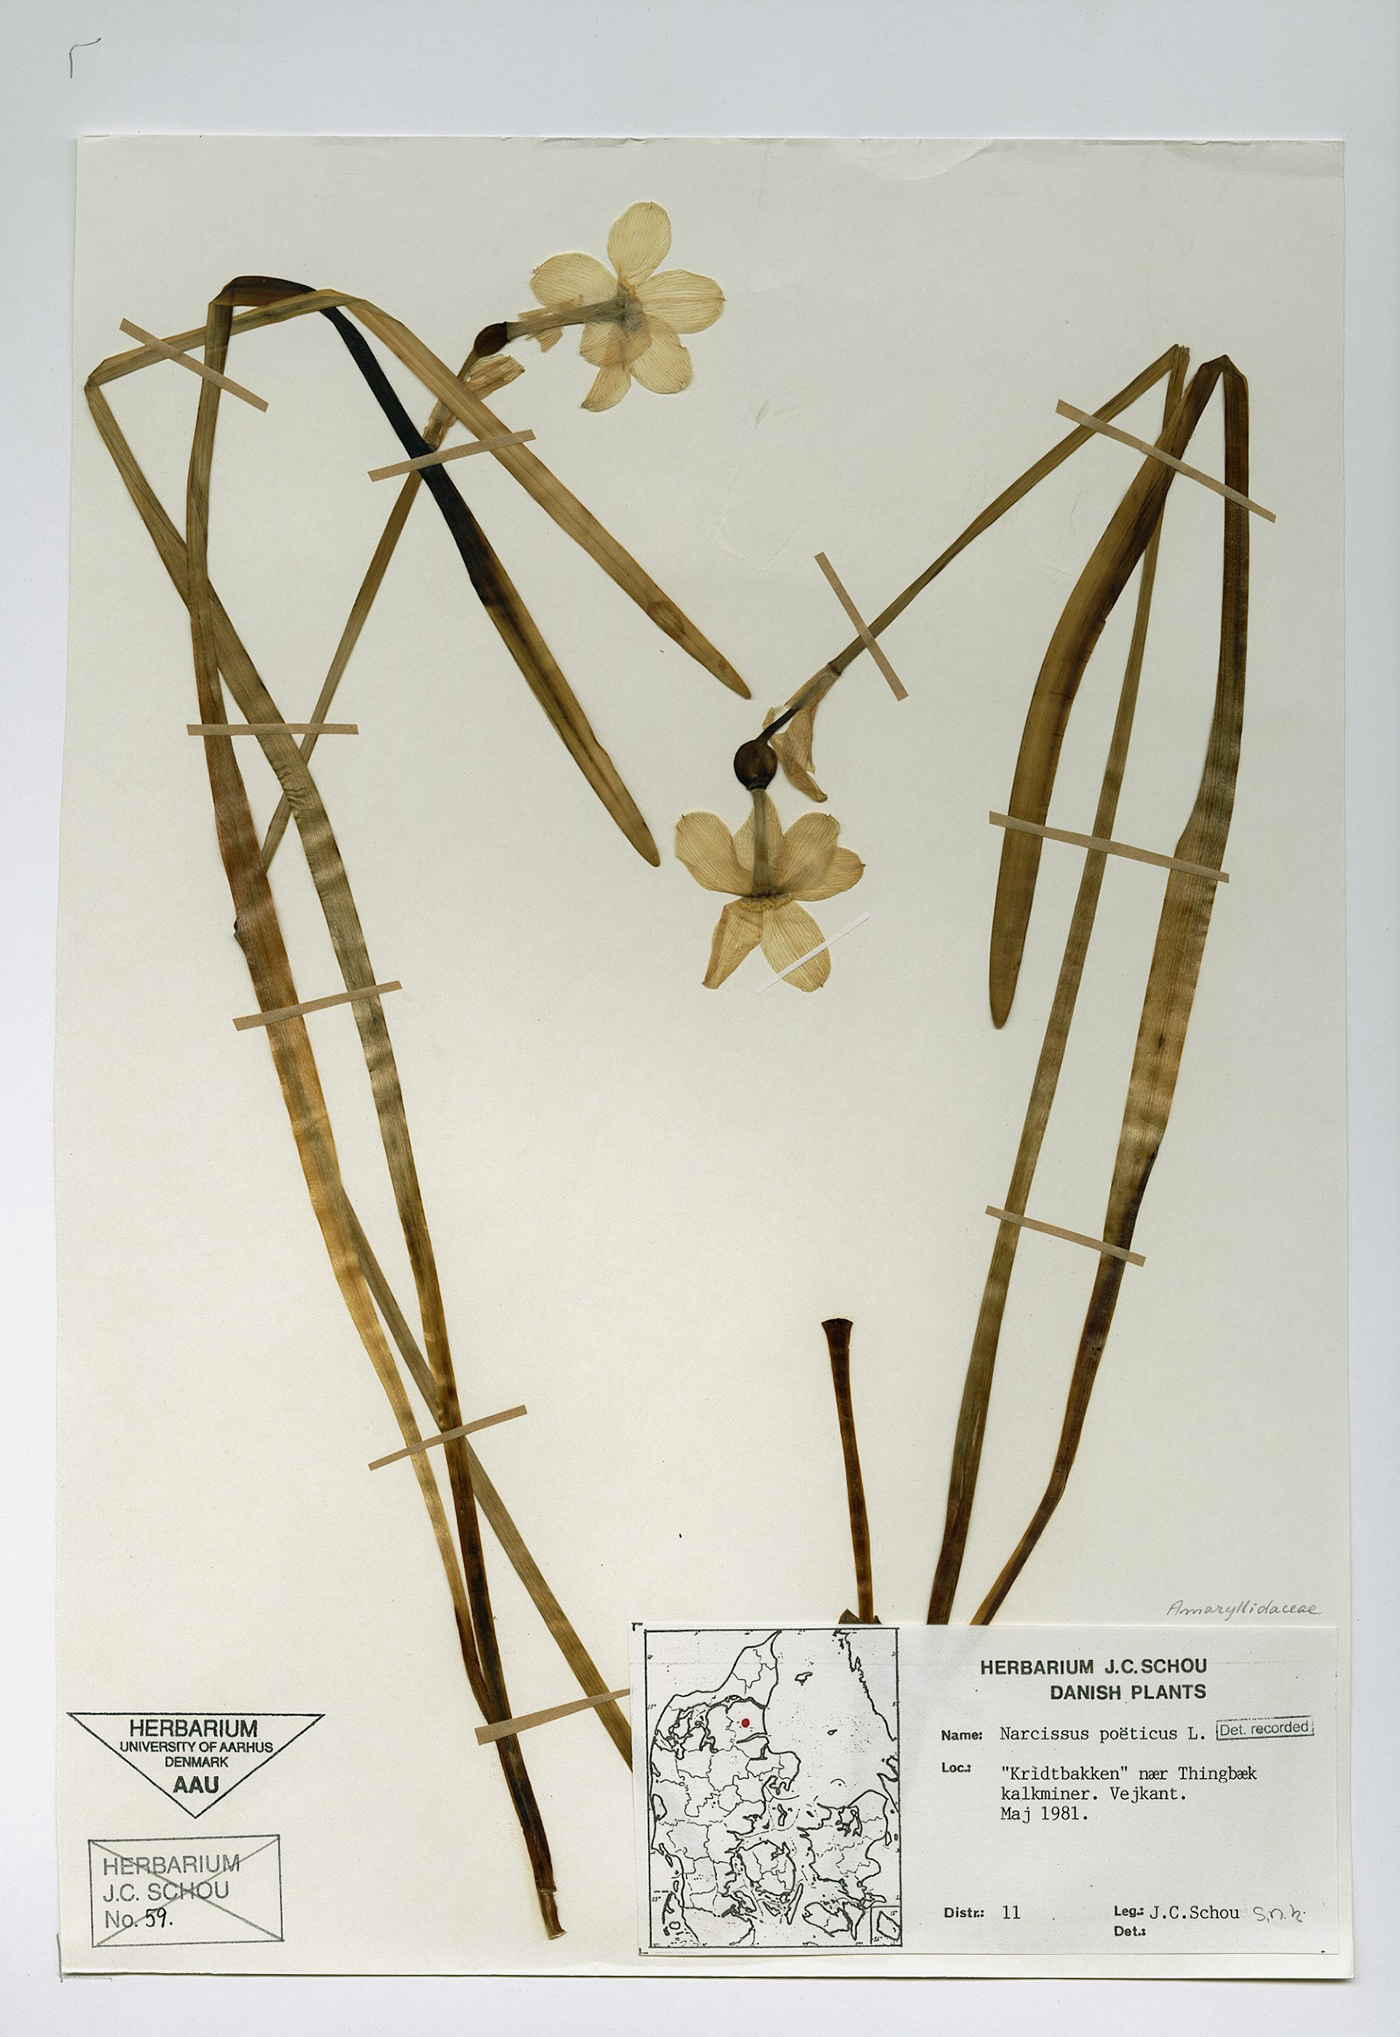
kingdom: Plantae
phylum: Tracheophyta
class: Liliopsida
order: Asparagales
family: Amaryllidaceae
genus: Narcissus
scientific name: Narcissus poeticus
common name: Pheasant's-eye daffodil
